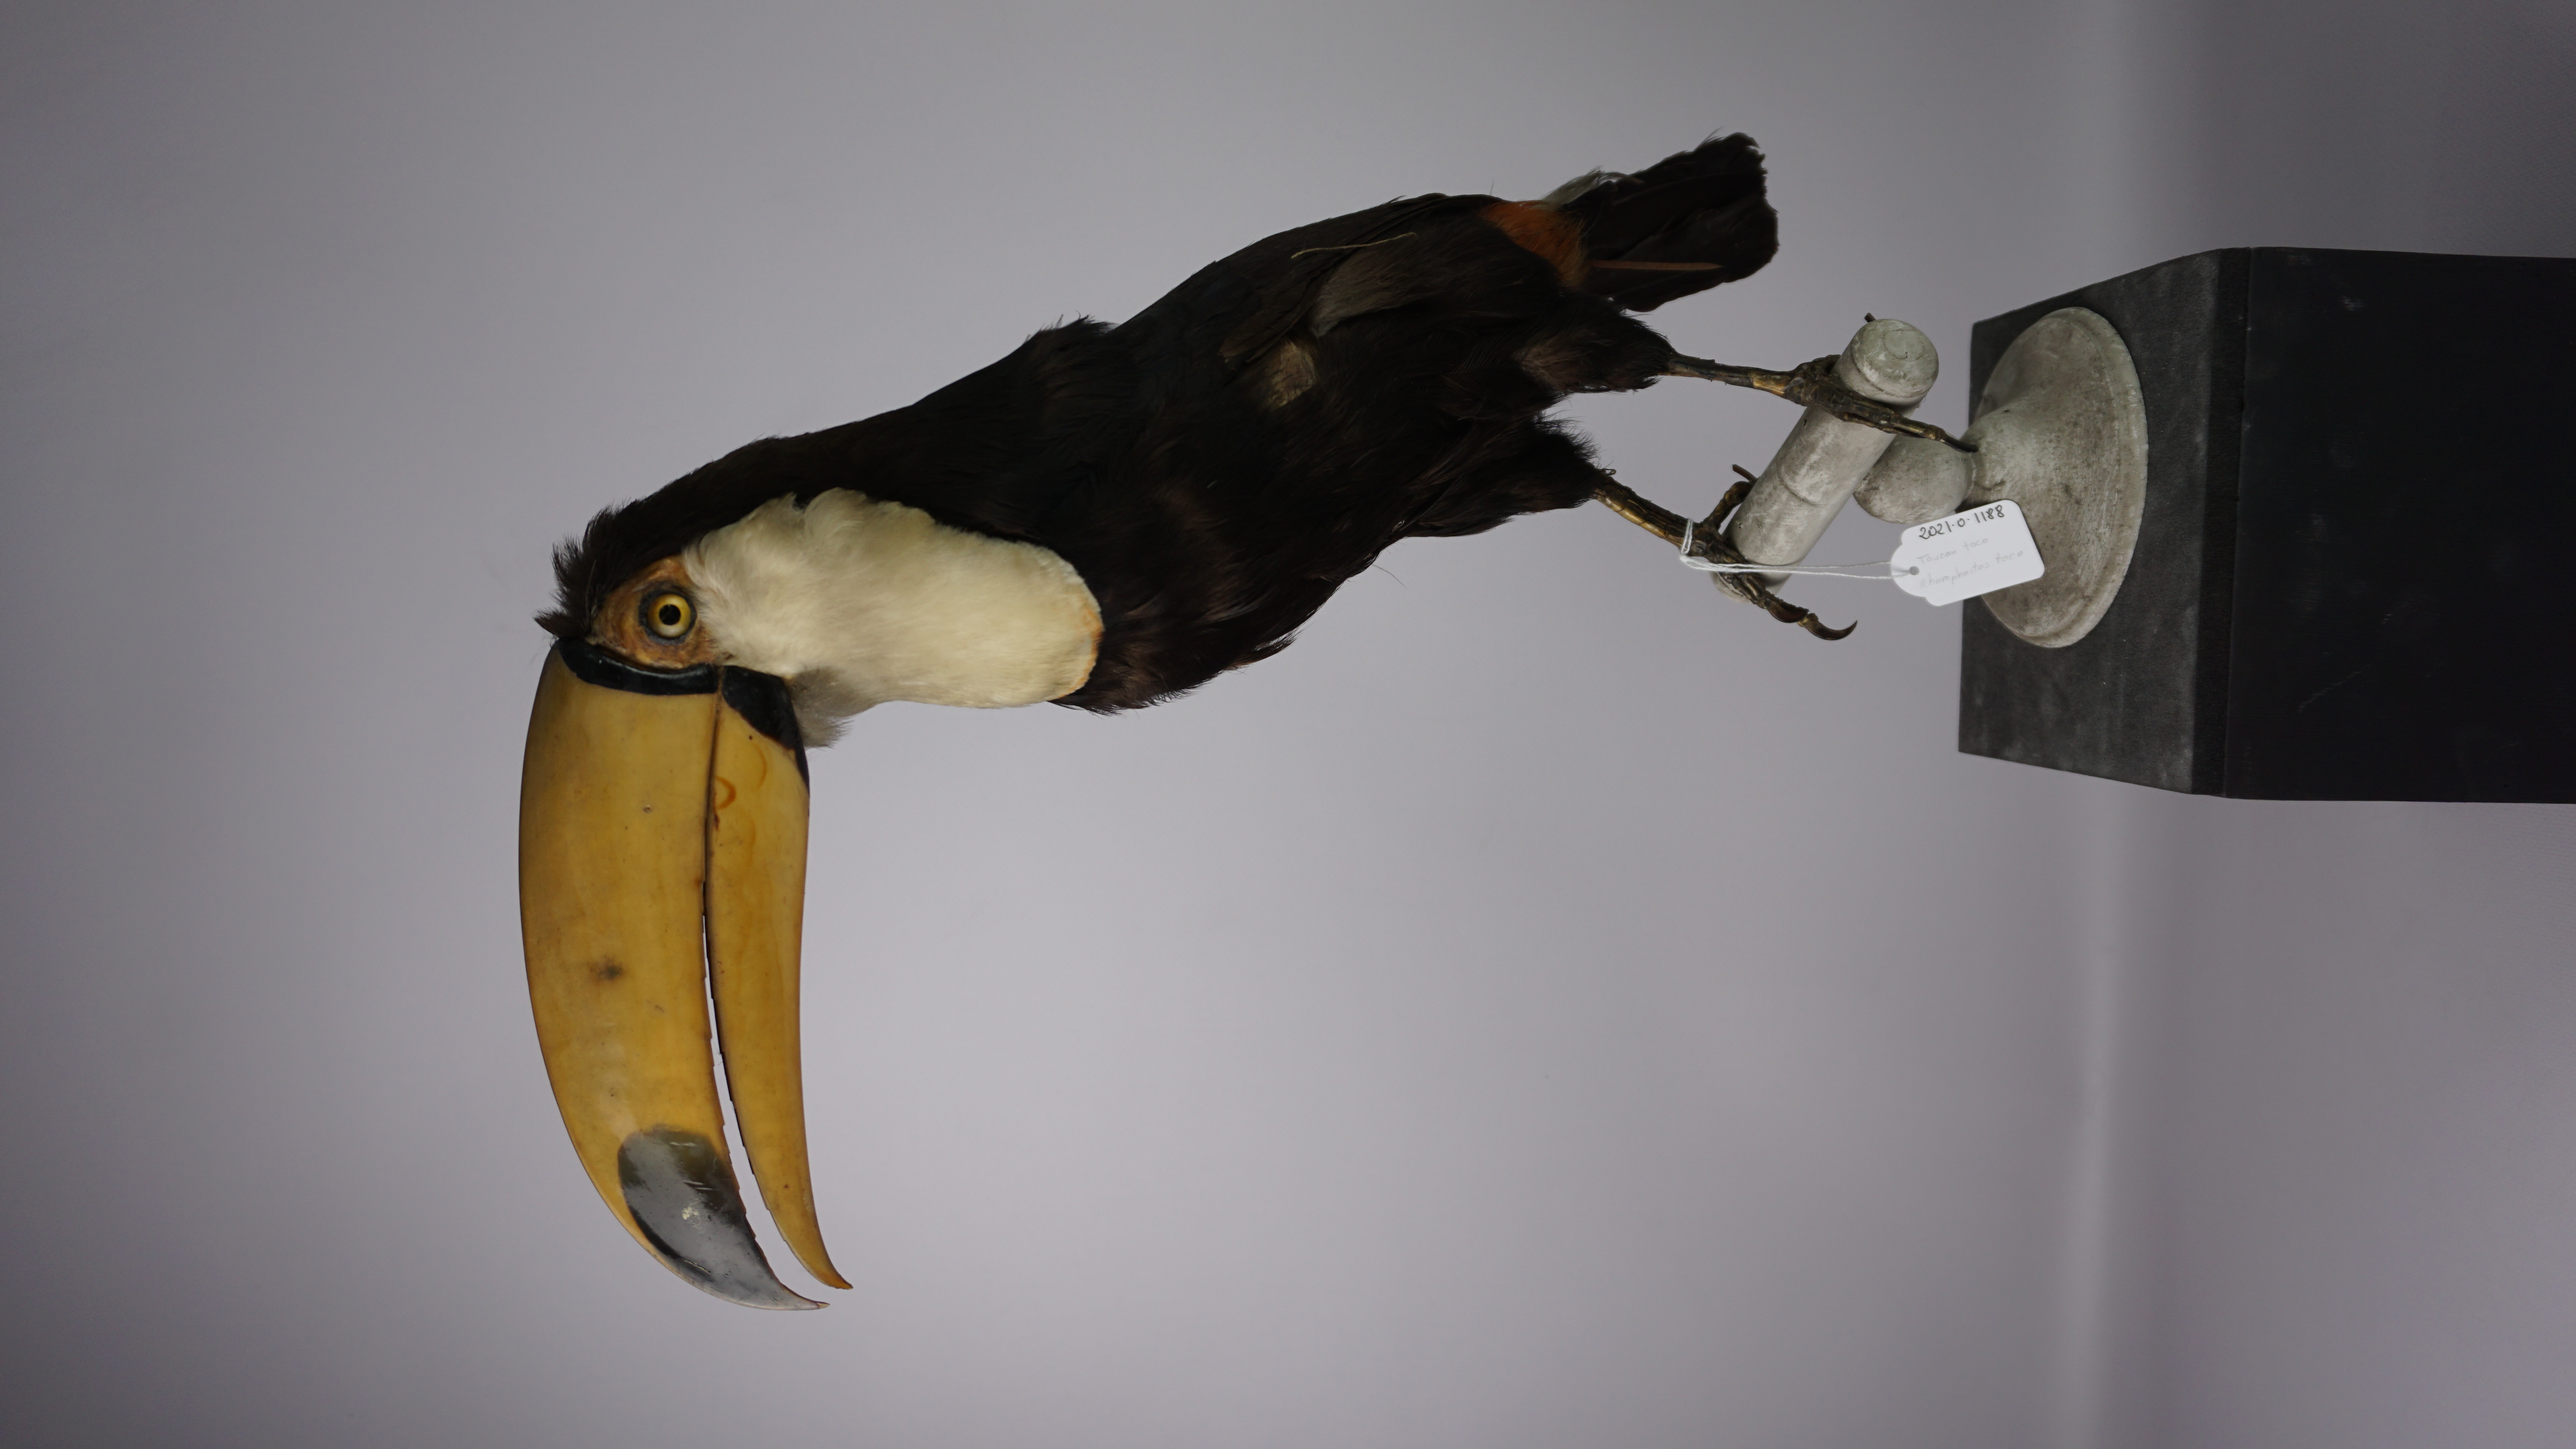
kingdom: Animalia
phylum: Chordata
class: Aves
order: Piciformes
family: Ramphastidae
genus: Ramphastos
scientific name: Ramphastos toco
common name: Toco toucan
